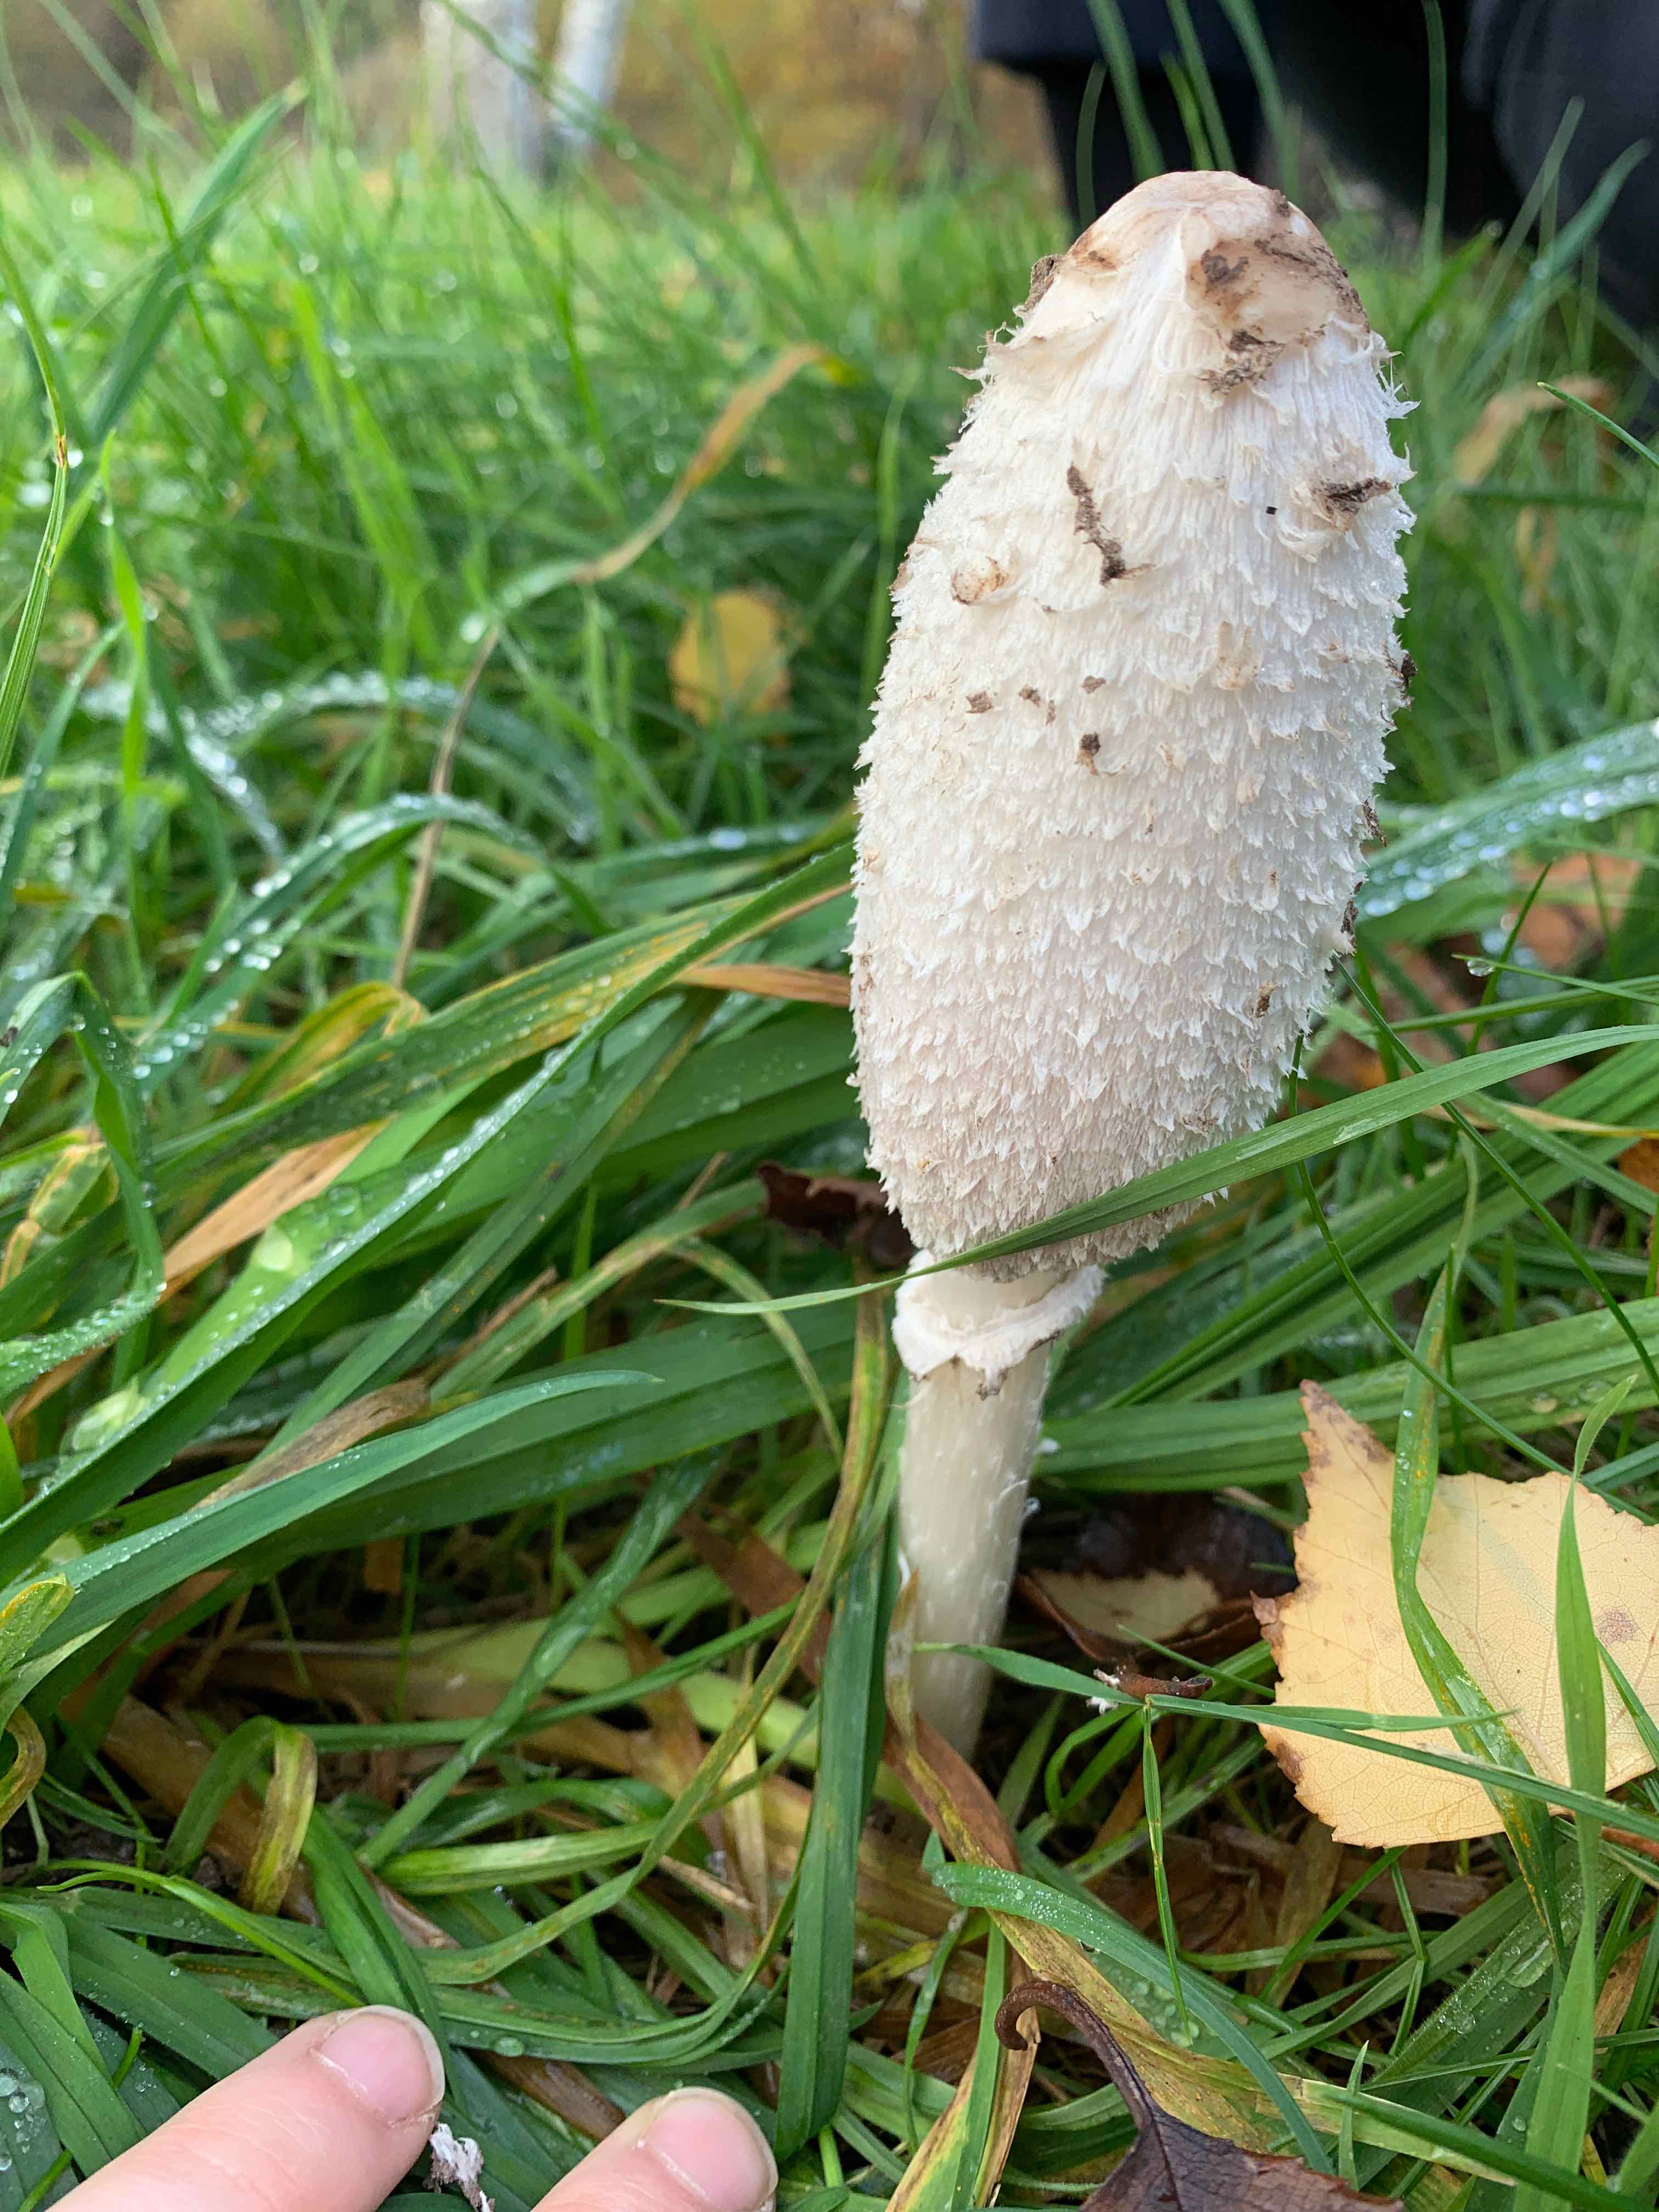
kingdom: Fungi
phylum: Basidiomycota
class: Agaricomycetes
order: Agaricales
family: Agaricaceae
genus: Coprinus
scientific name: Coprinus comatus
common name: stor parykhat
